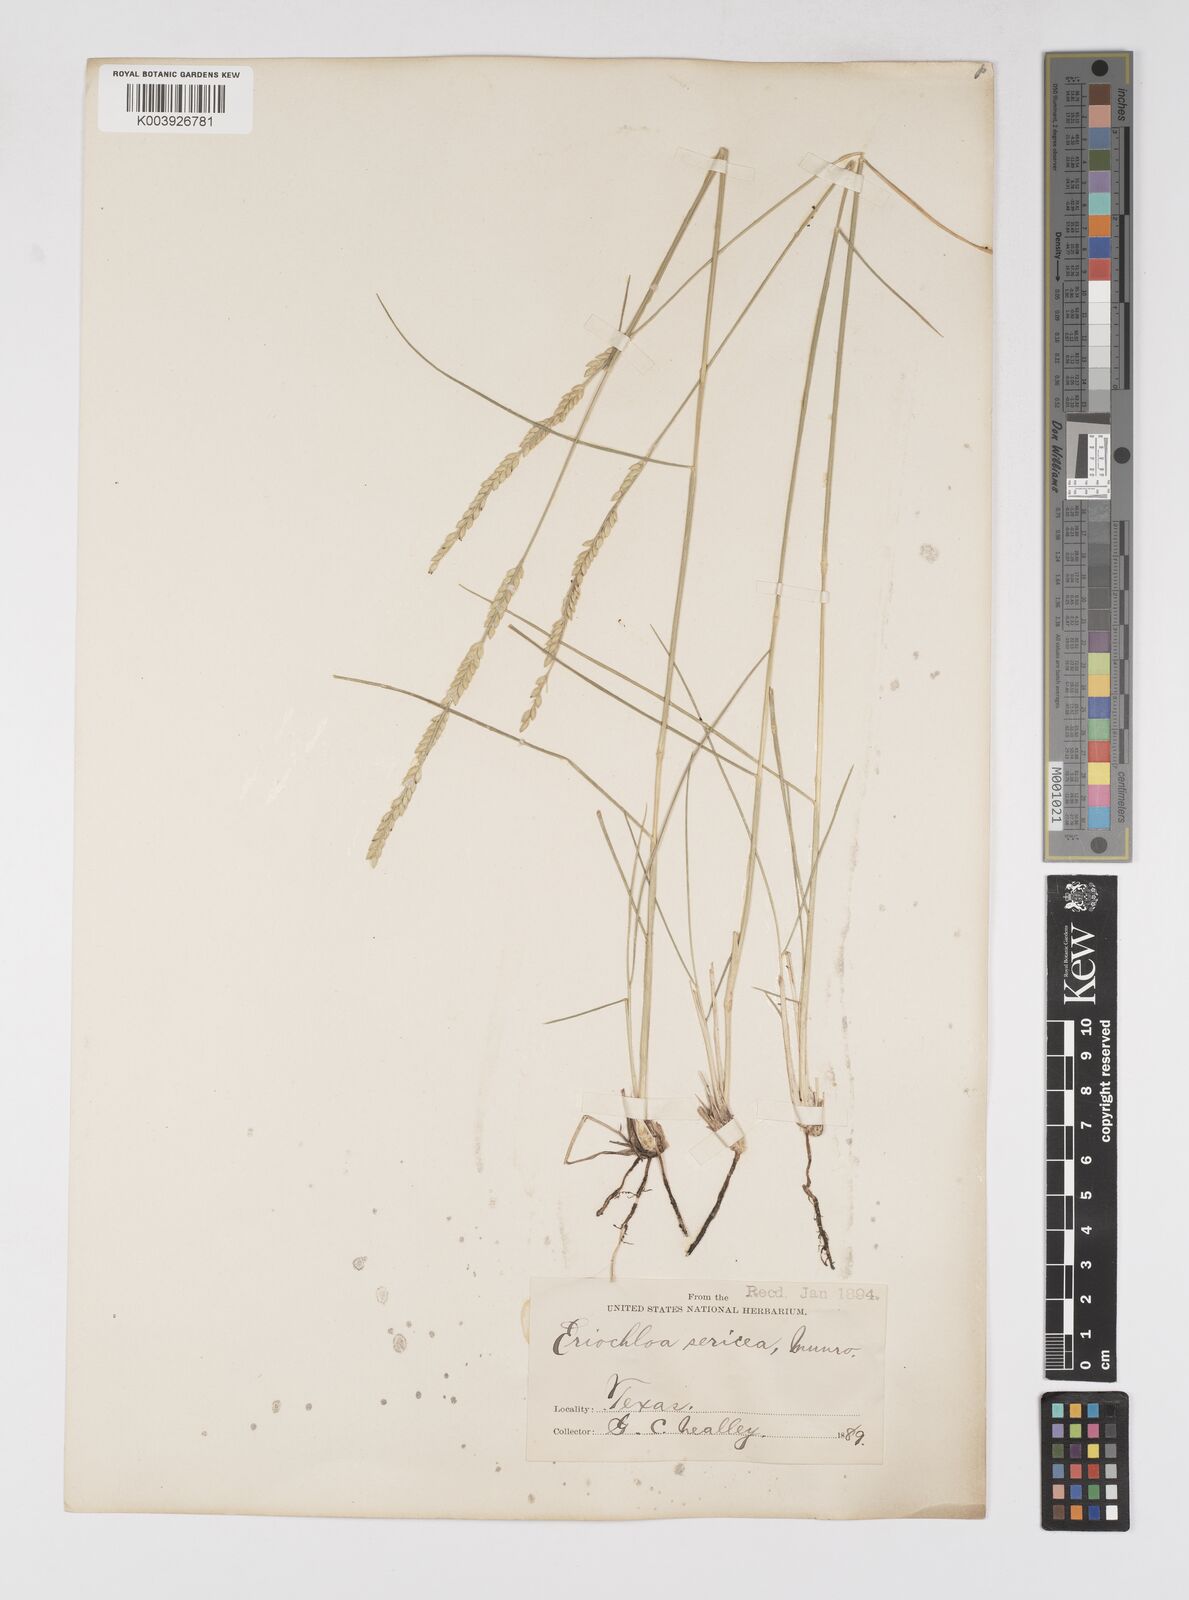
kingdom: Plantae
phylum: Tracheophyta
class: Liliopsida
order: Poales
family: Poaceae
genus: Eriochloa
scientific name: Eriochloa sericea
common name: Texas cup grass
